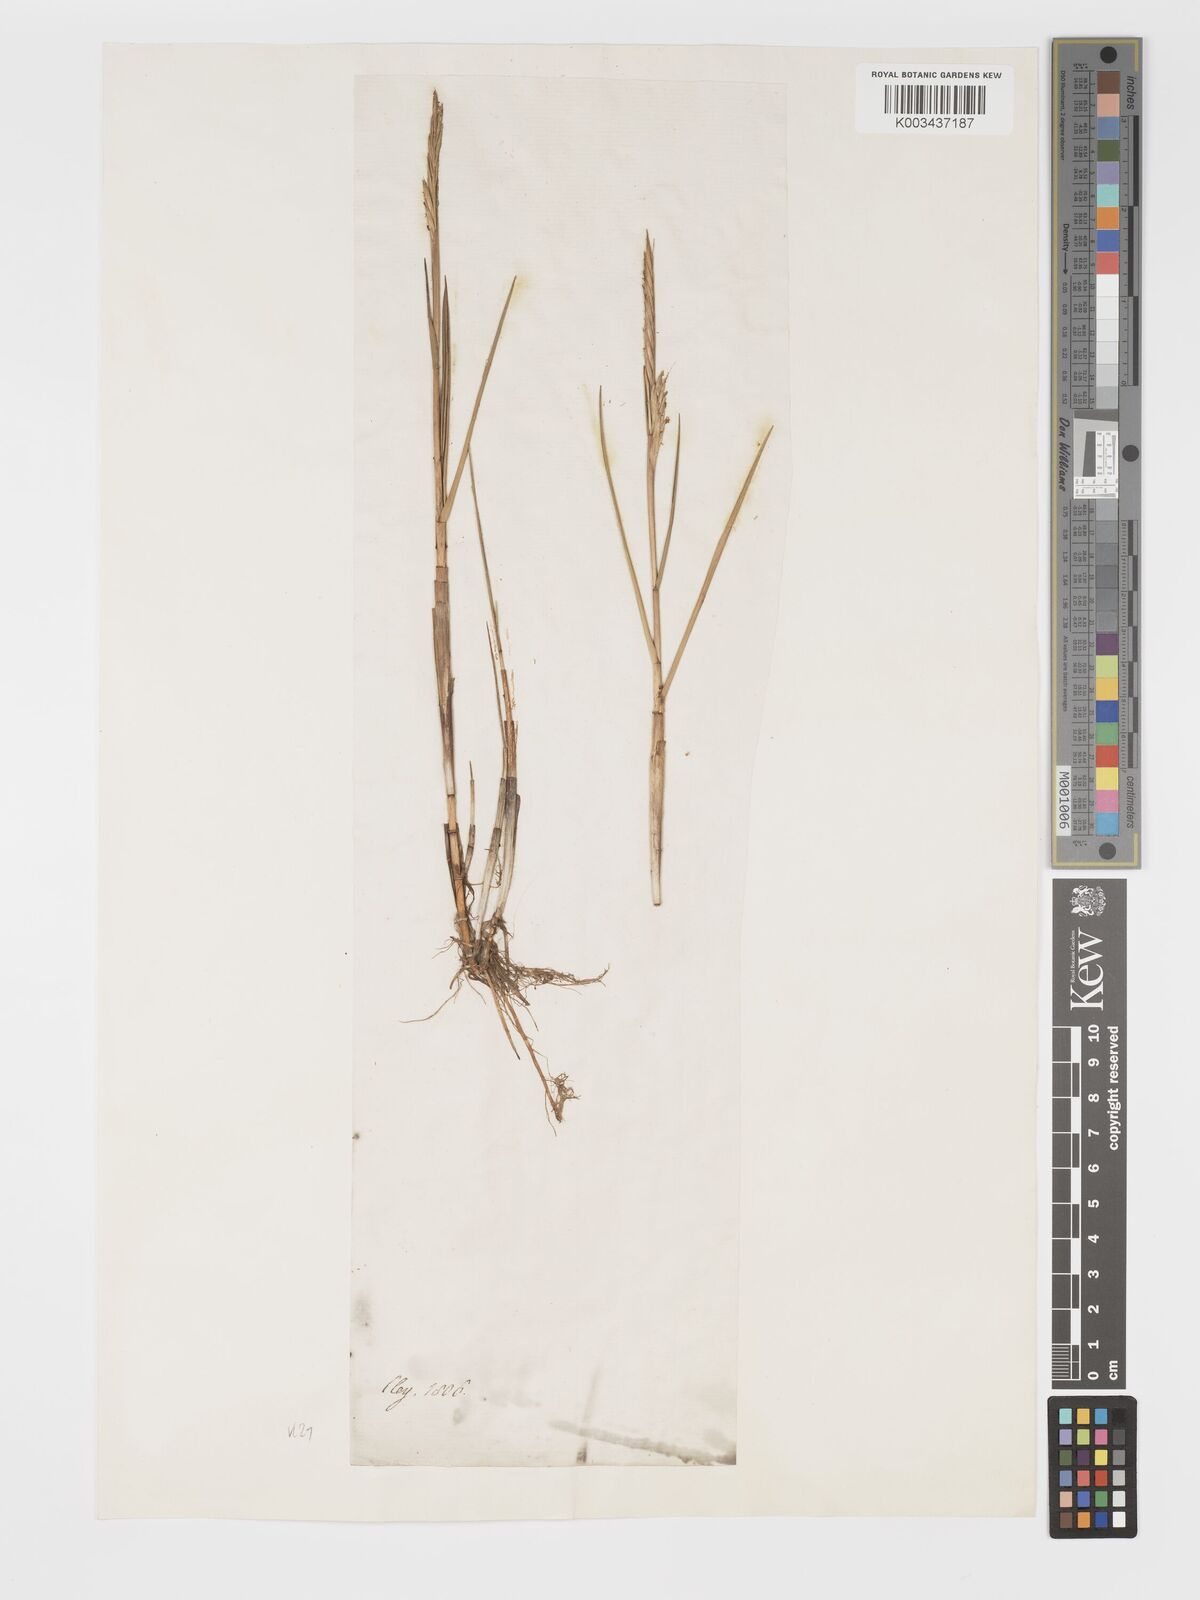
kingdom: Plantae
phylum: Tracheophyta
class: Liliopsida
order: Poales
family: Poaceae
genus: Sporobolus
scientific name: Sporobolus maritimus
